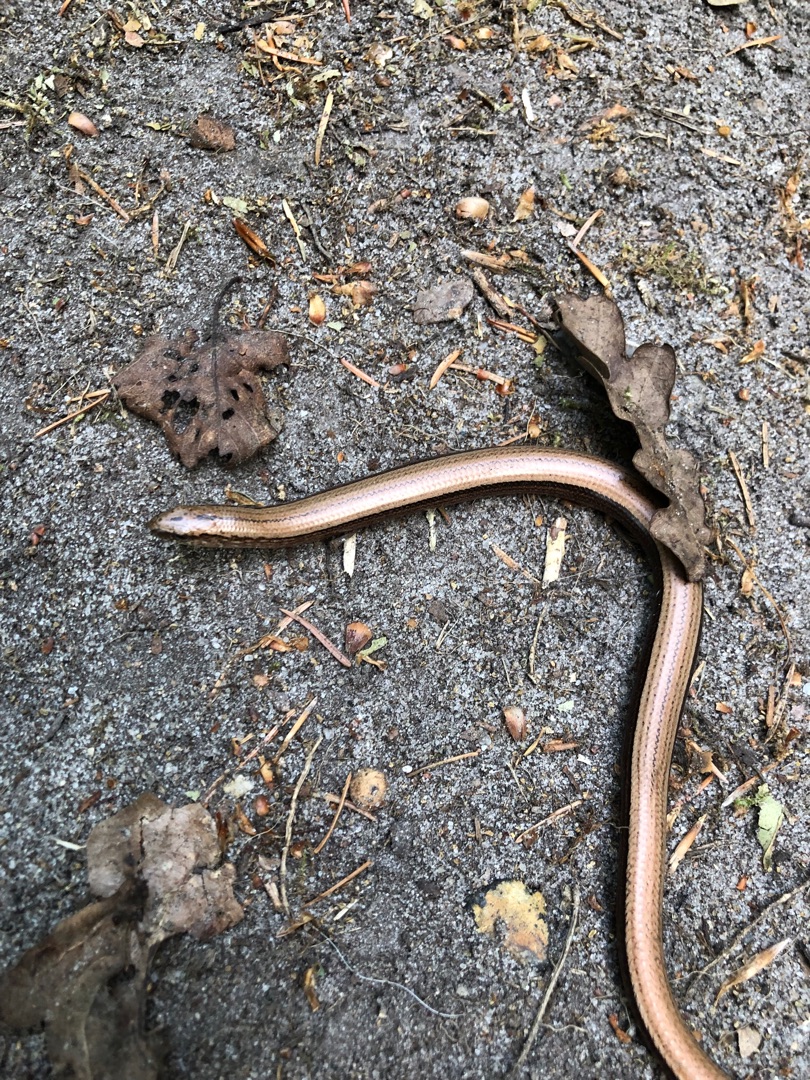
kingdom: Animalia
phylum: Chordata
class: Squamata
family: Anguidae
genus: Anguis
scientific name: Anguis fragilis
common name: Stålorm
